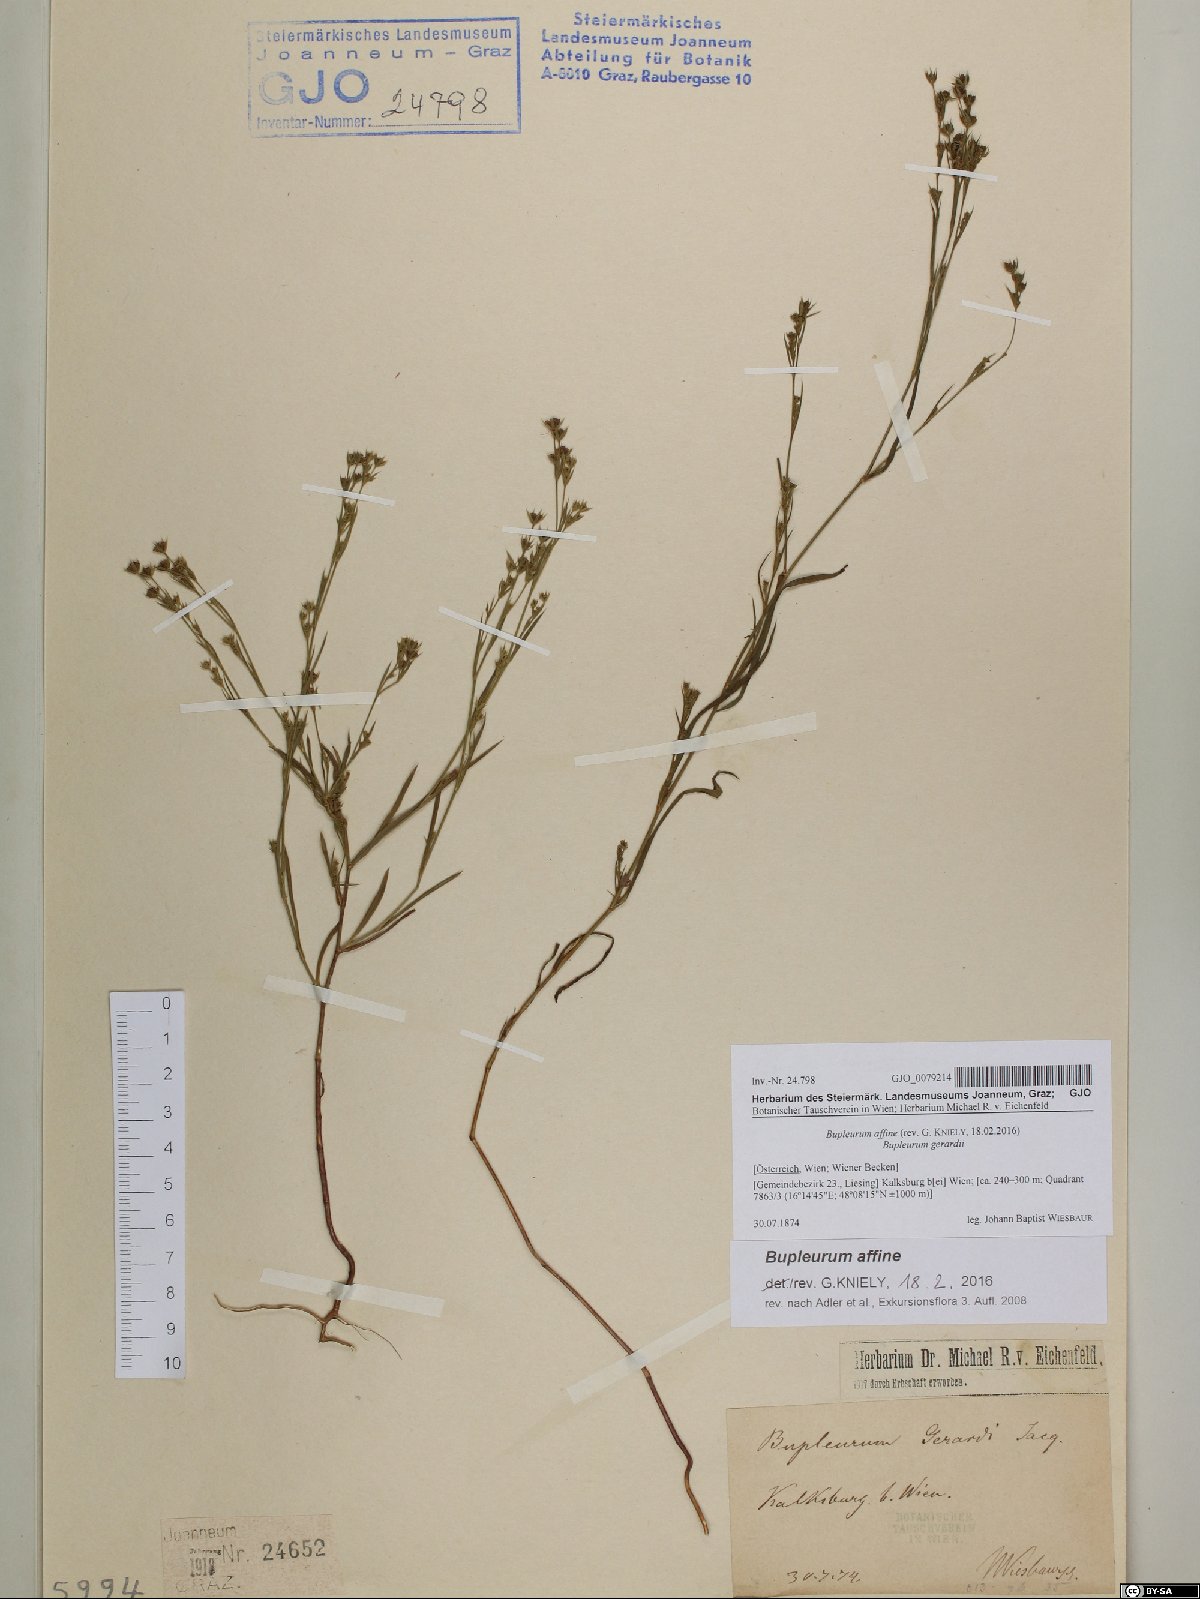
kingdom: Plantae
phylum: Tracheophyta
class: Magnoliopsida
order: Apiales
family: Apiaceae
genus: Bupleurum
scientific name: Bupleurum affine
